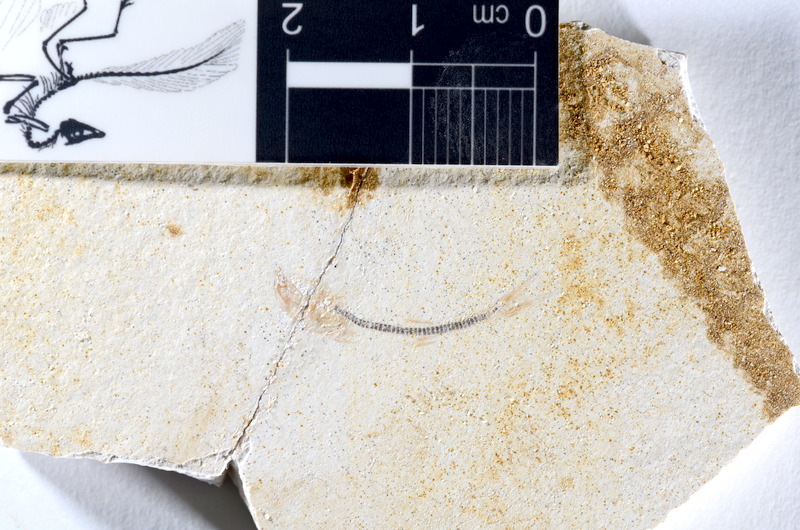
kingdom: Animalia
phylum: Chordata
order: Salmoniformes
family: Orthogonikleithridae
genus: Orthogonikleithrus
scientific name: Orthogonikleithrus hoelli
